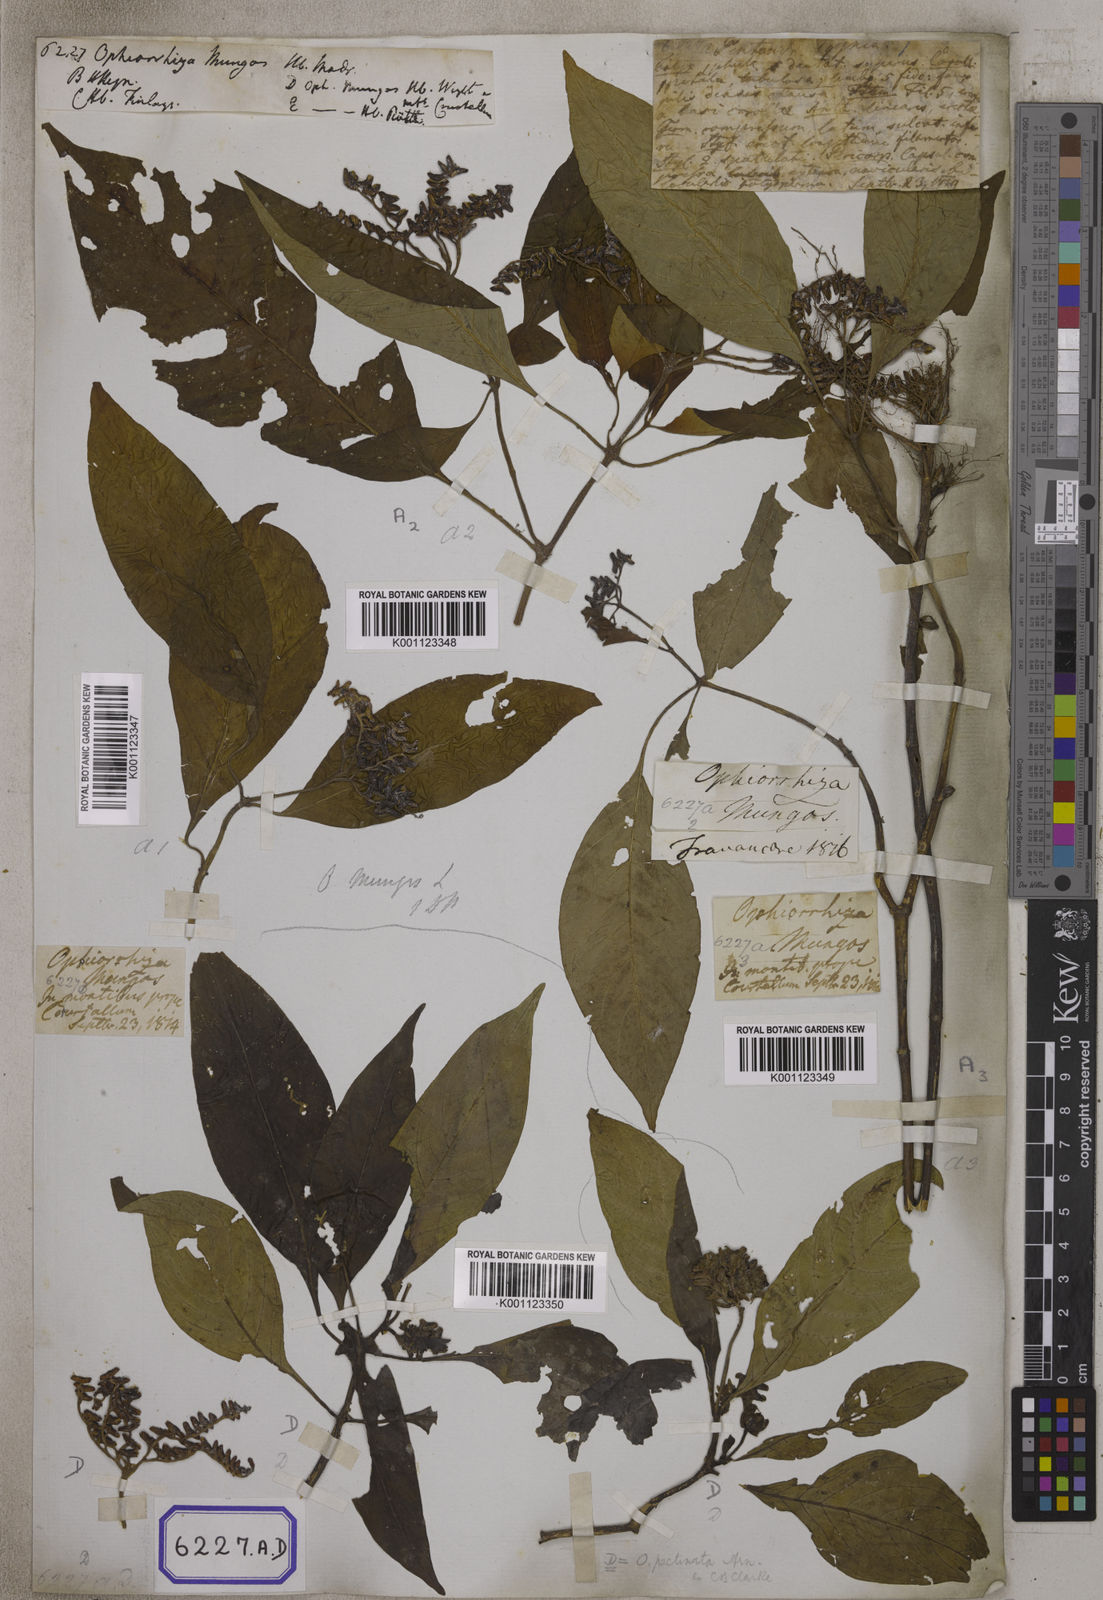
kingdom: Plantae
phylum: Tracheophyta
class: Magnoliopsida
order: Gentianales
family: Rubiaceae
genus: Ophiorrhiza
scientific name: Ophiorrhiza mungos
